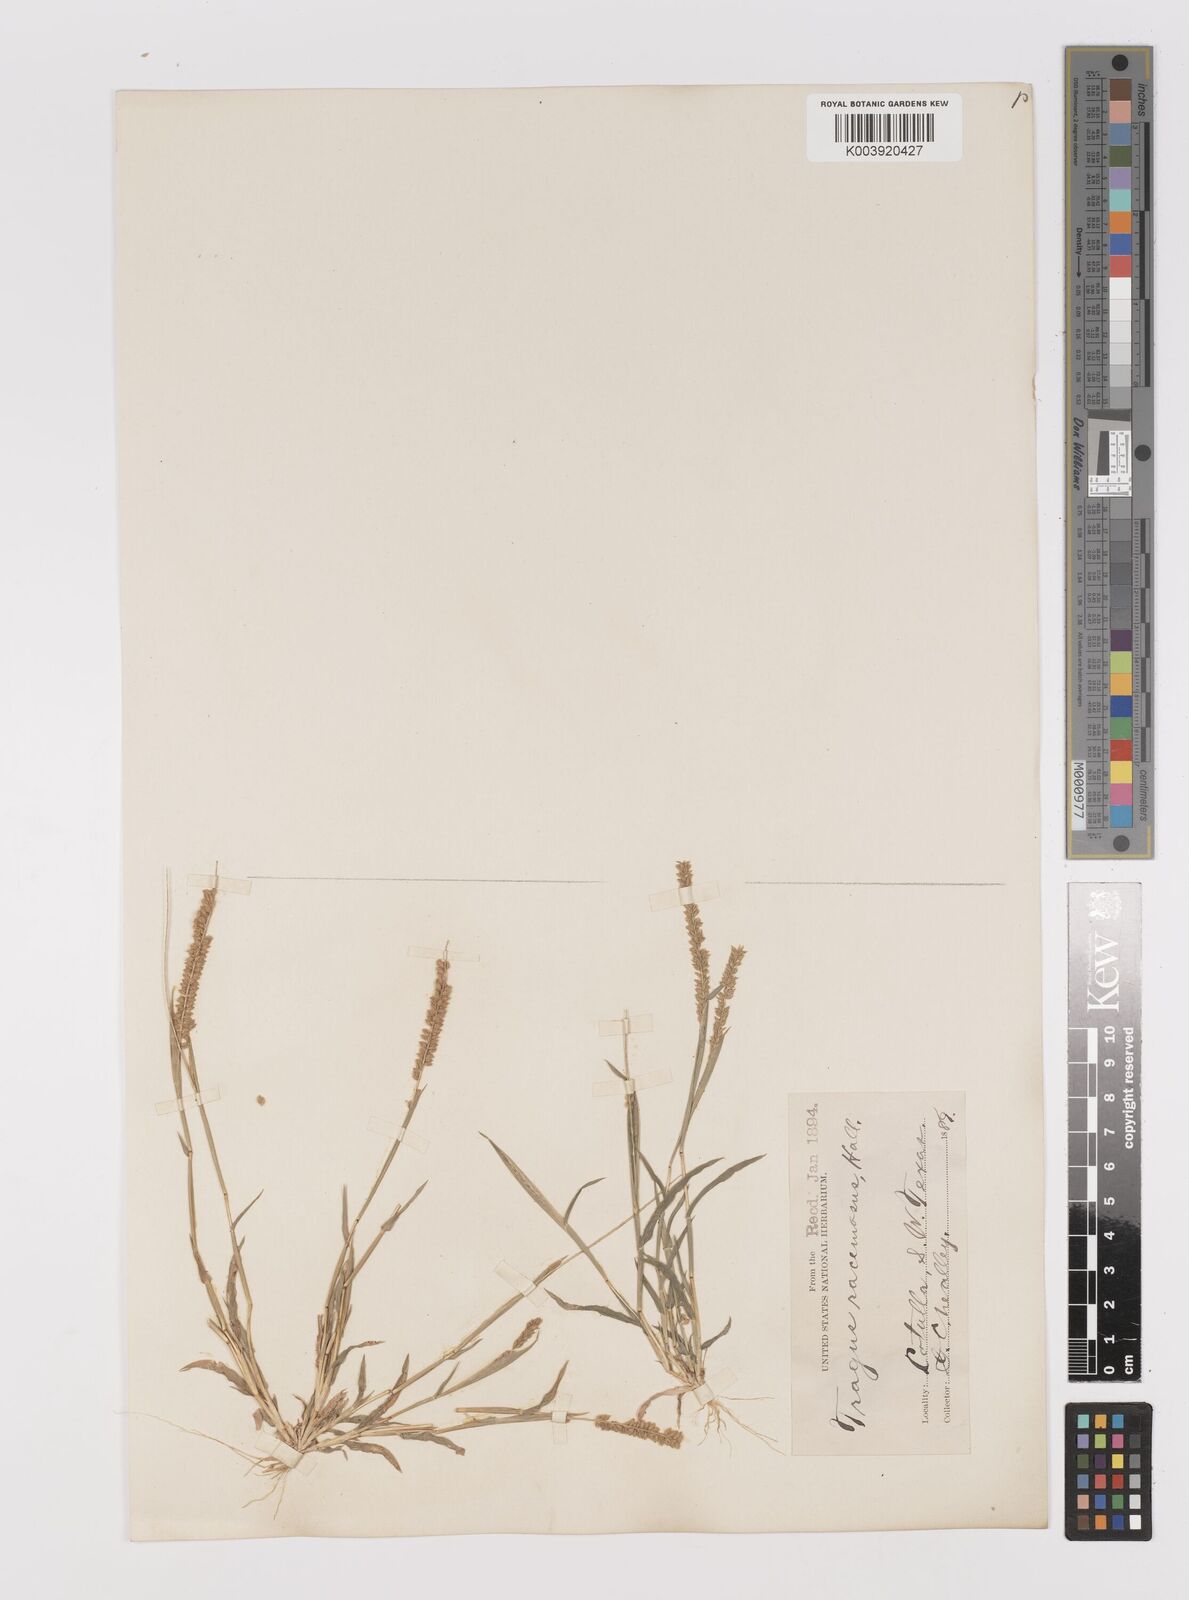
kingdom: Plantae
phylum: Tracheophyta
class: Liliopsida
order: Poales
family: Poaceae
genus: Tragus
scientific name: Tragus berteronianus
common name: African bur-grass
